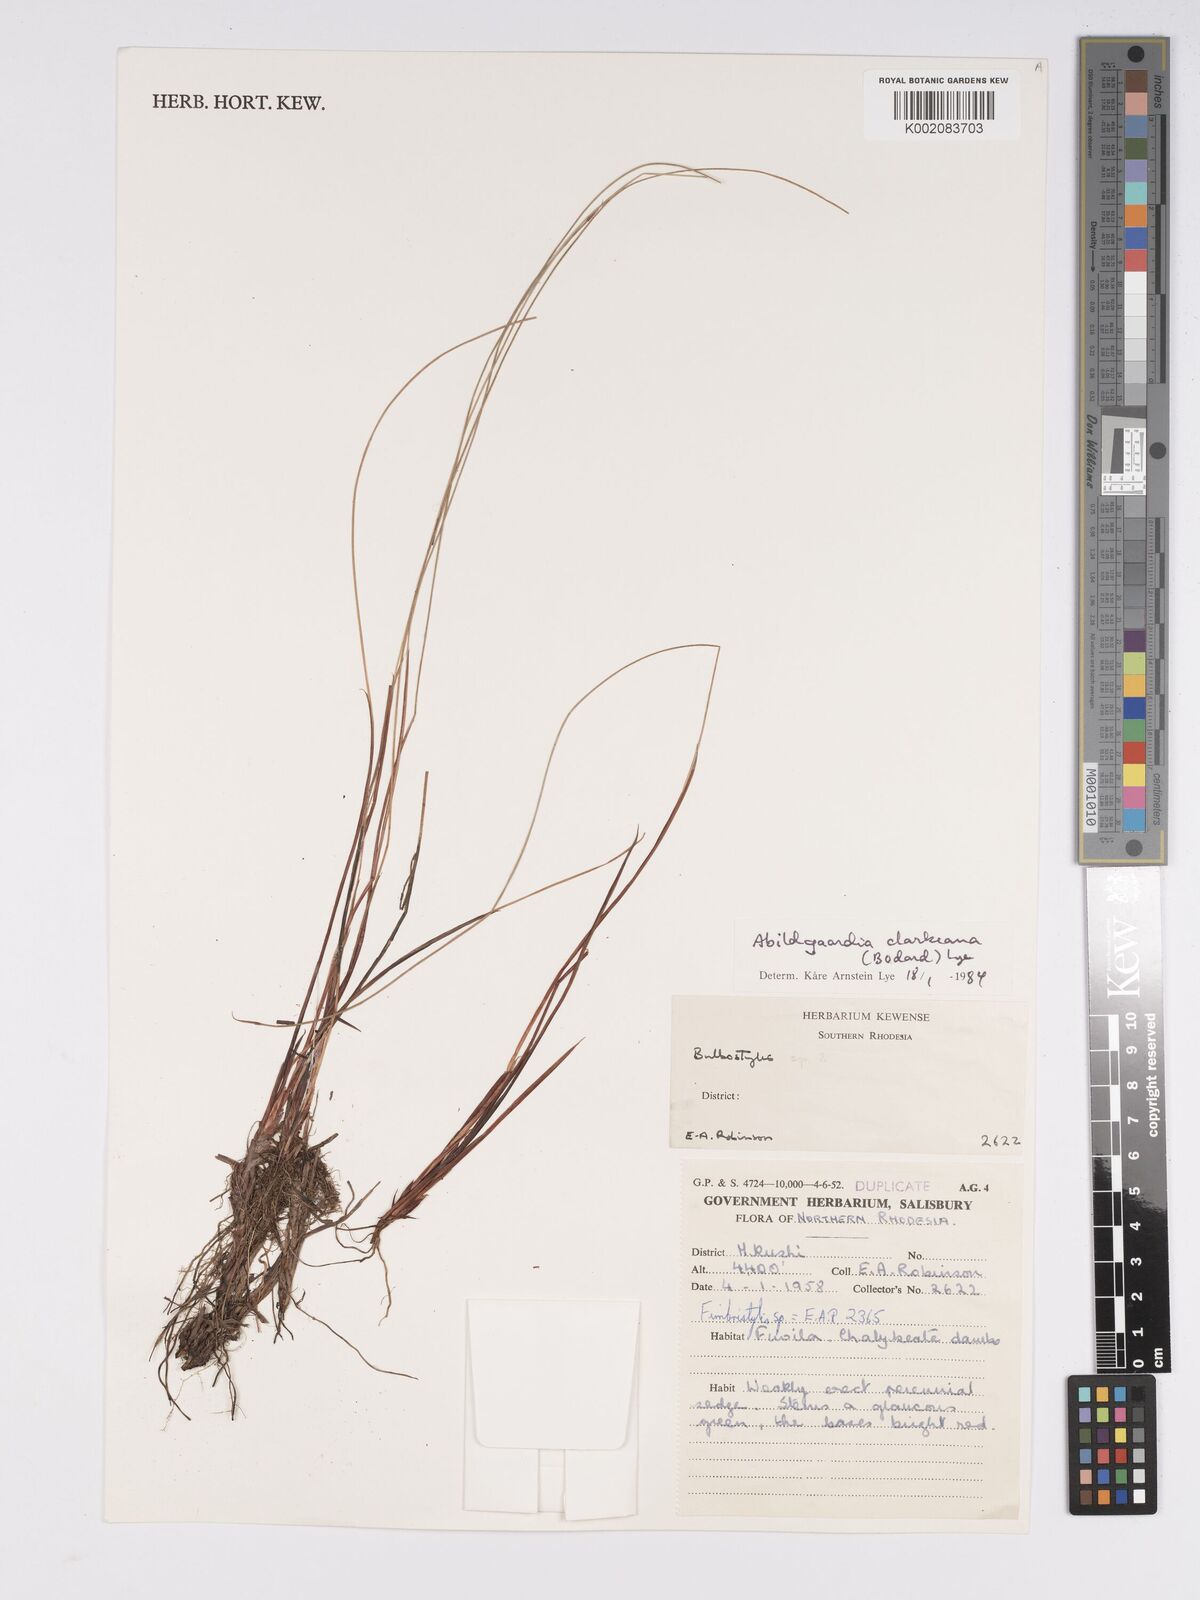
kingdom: Plantae
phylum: Tracheophyta
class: Liliopsida
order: Poales
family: Cyperaceae
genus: Bulbostylis
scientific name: Bulbostylis oritrephes
